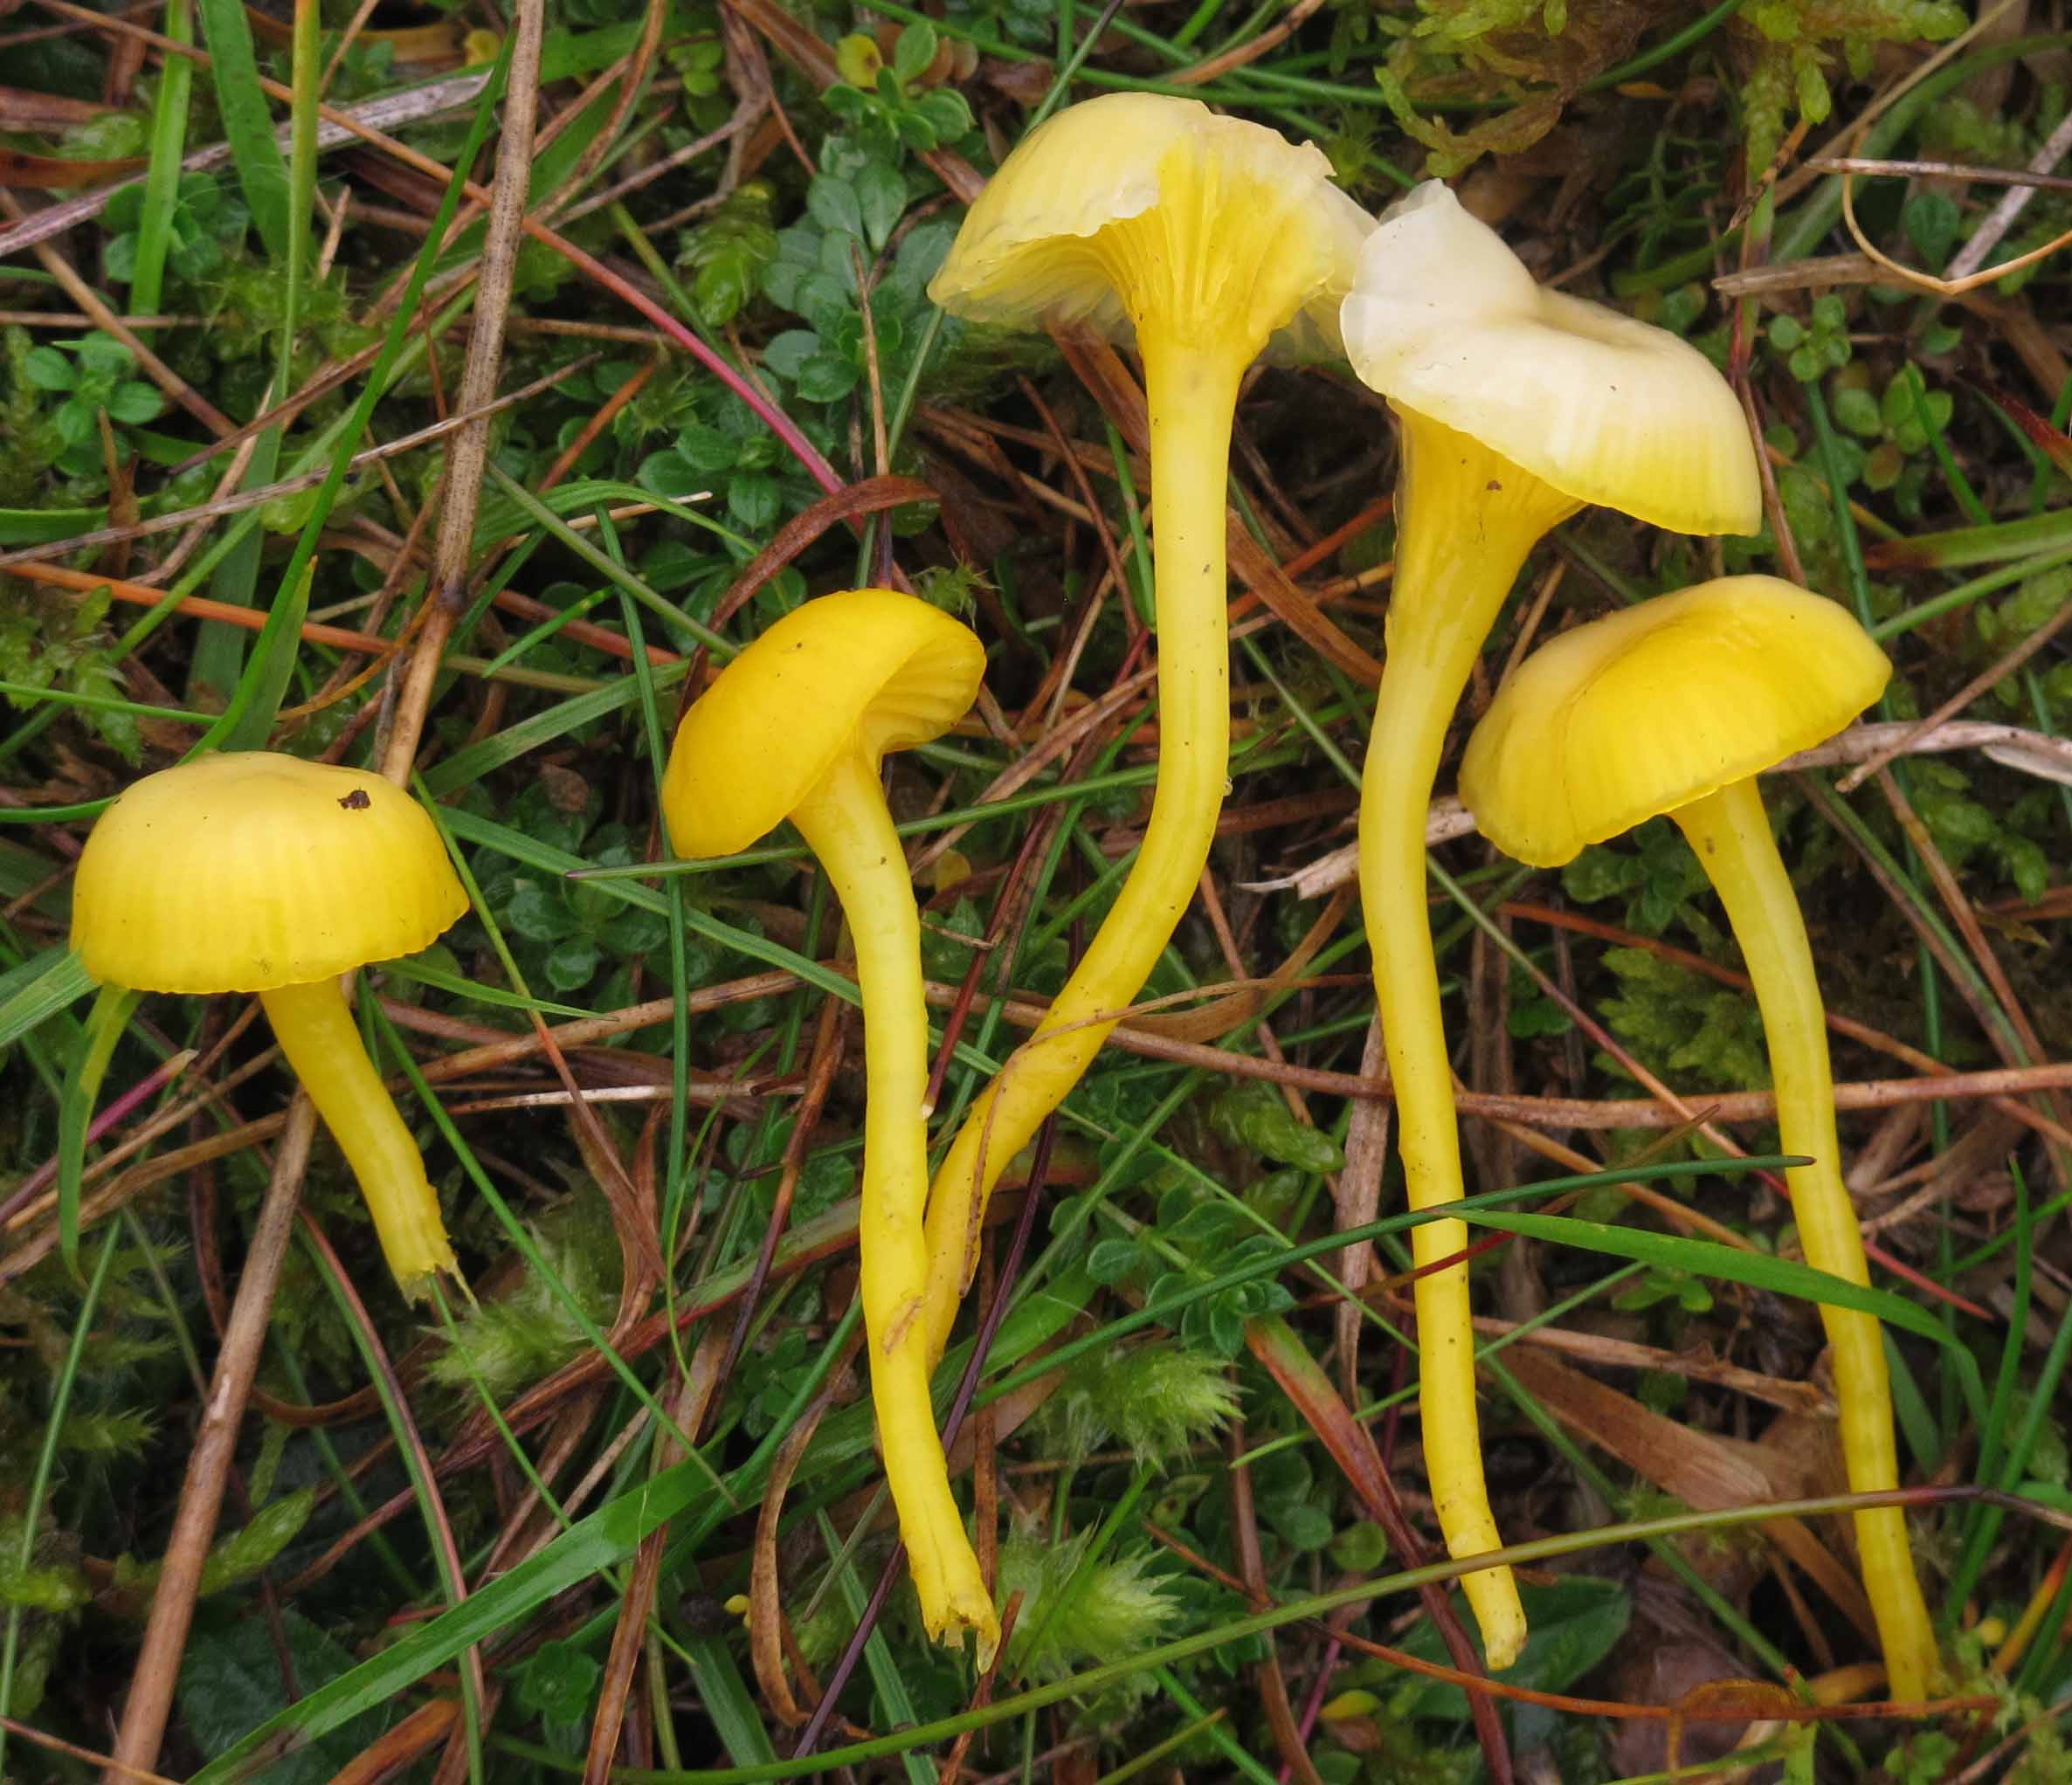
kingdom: Fungi
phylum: Basidiomycota
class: Agaricomycetes
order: Agaricales
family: Hygrophoraceae
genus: Gloioxanthomyces
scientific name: Gloioxanthomyces vitellinus
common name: kromgul vokshat
